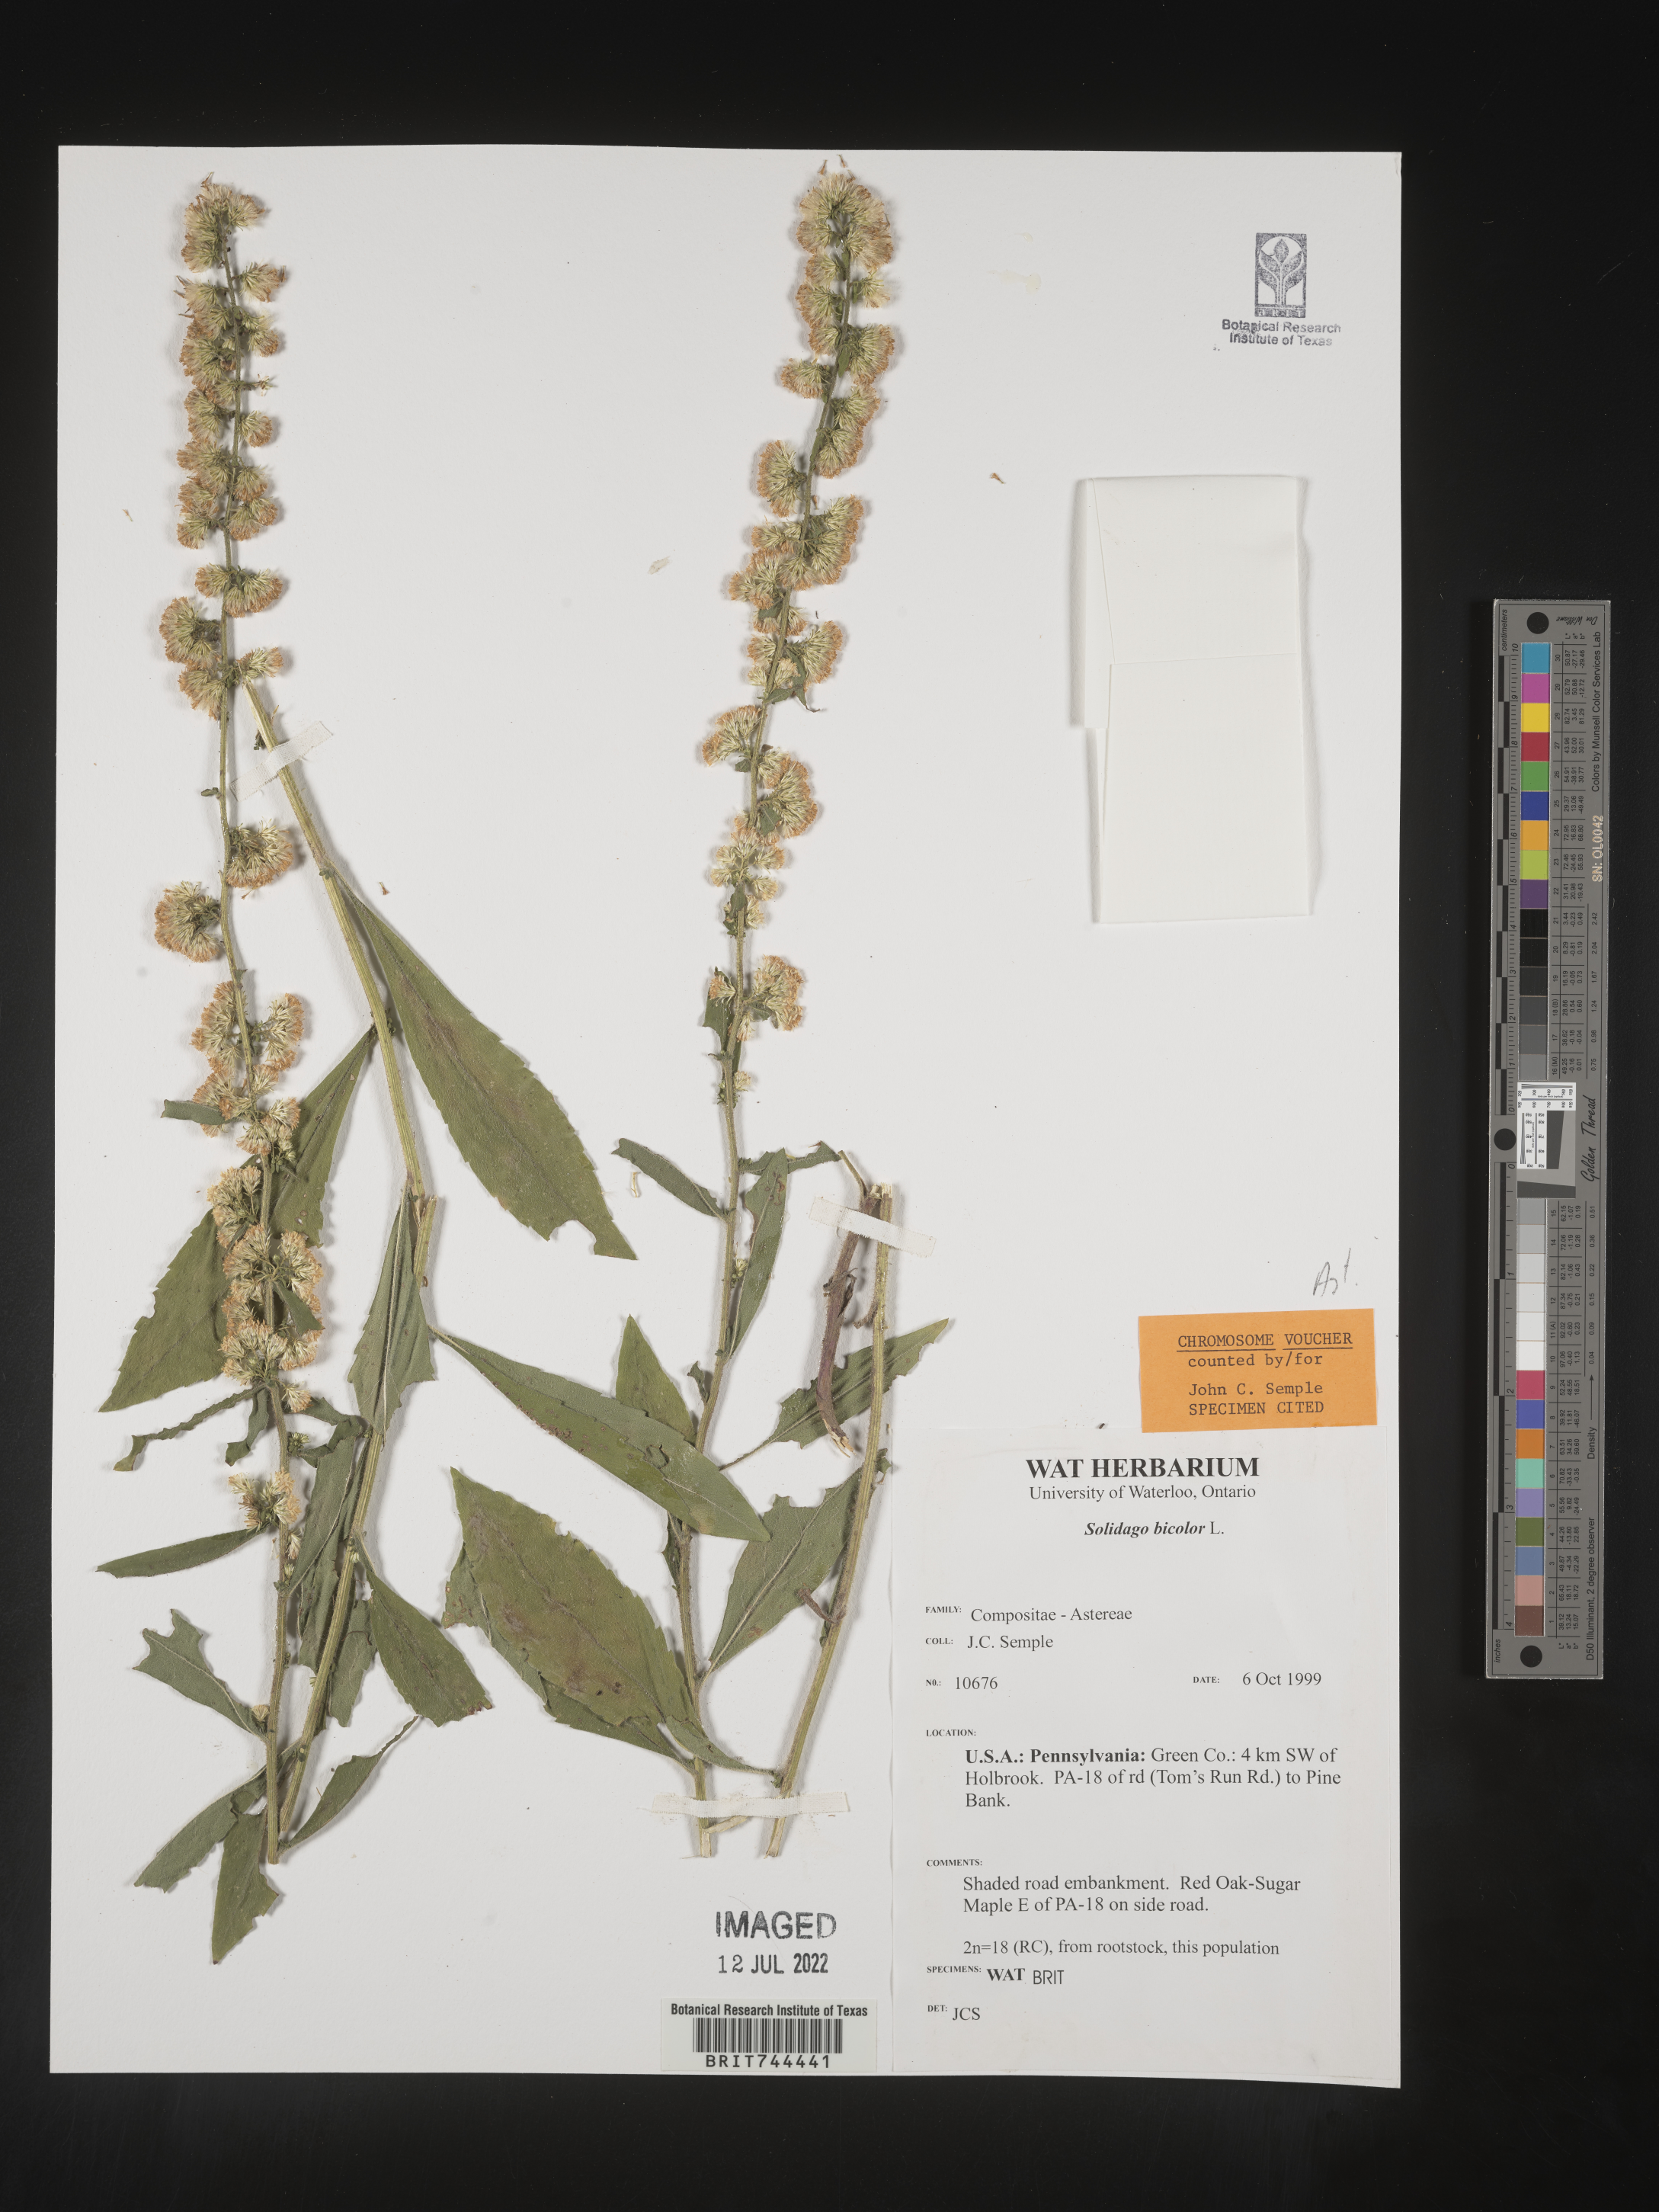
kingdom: Plantae
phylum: Tracheophyta
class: Magnoliopsida
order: Asterales
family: Asteraceae
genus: Solidago
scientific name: Solidago bicolor
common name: Silverrod
